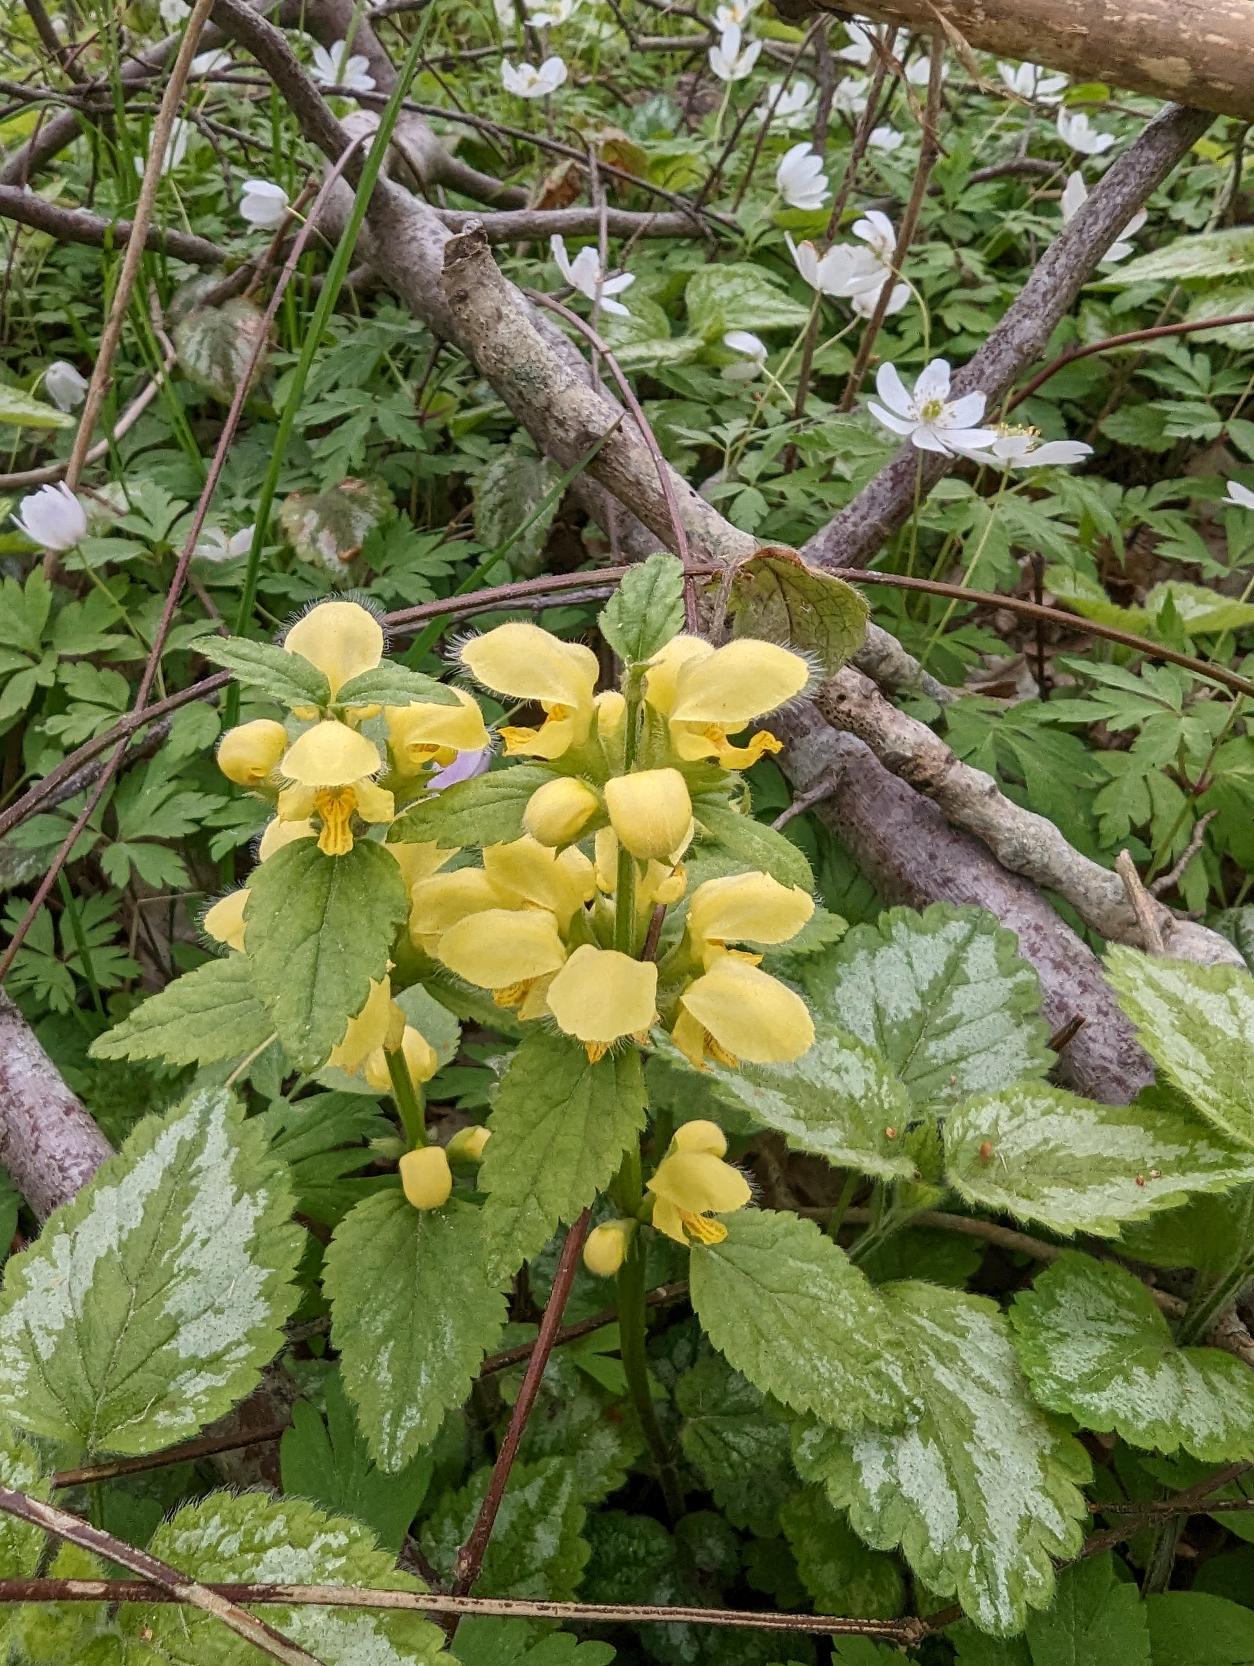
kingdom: Plantae
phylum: Tracheophyta
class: Magnoliopsida
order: Lamiales
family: Lamiaceae
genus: Lamium
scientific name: Lamium galeobdolon
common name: Have-guldnælde
